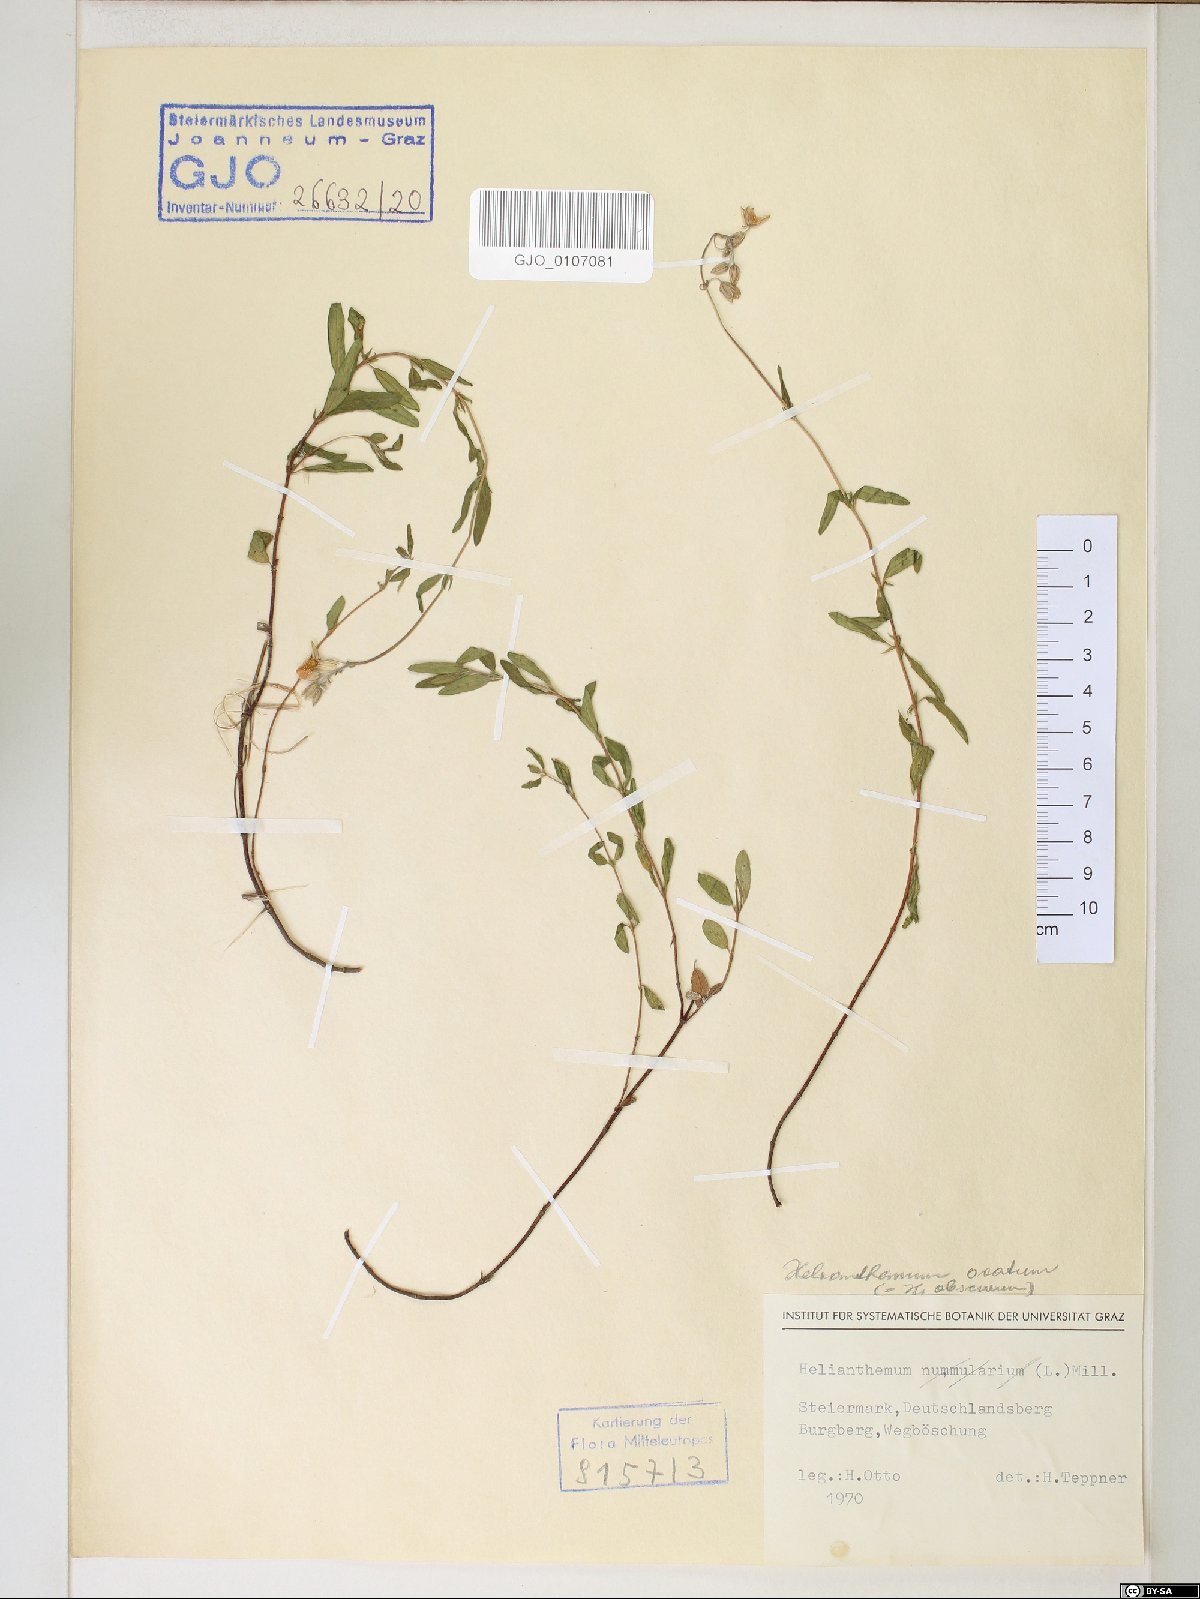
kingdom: Plantae
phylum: Tracheophyta
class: Magnoliopsida
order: Malvales
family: Cistaceae
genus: Helianthemum
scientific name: Helianthemum nummularium
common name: Common rock-rose
